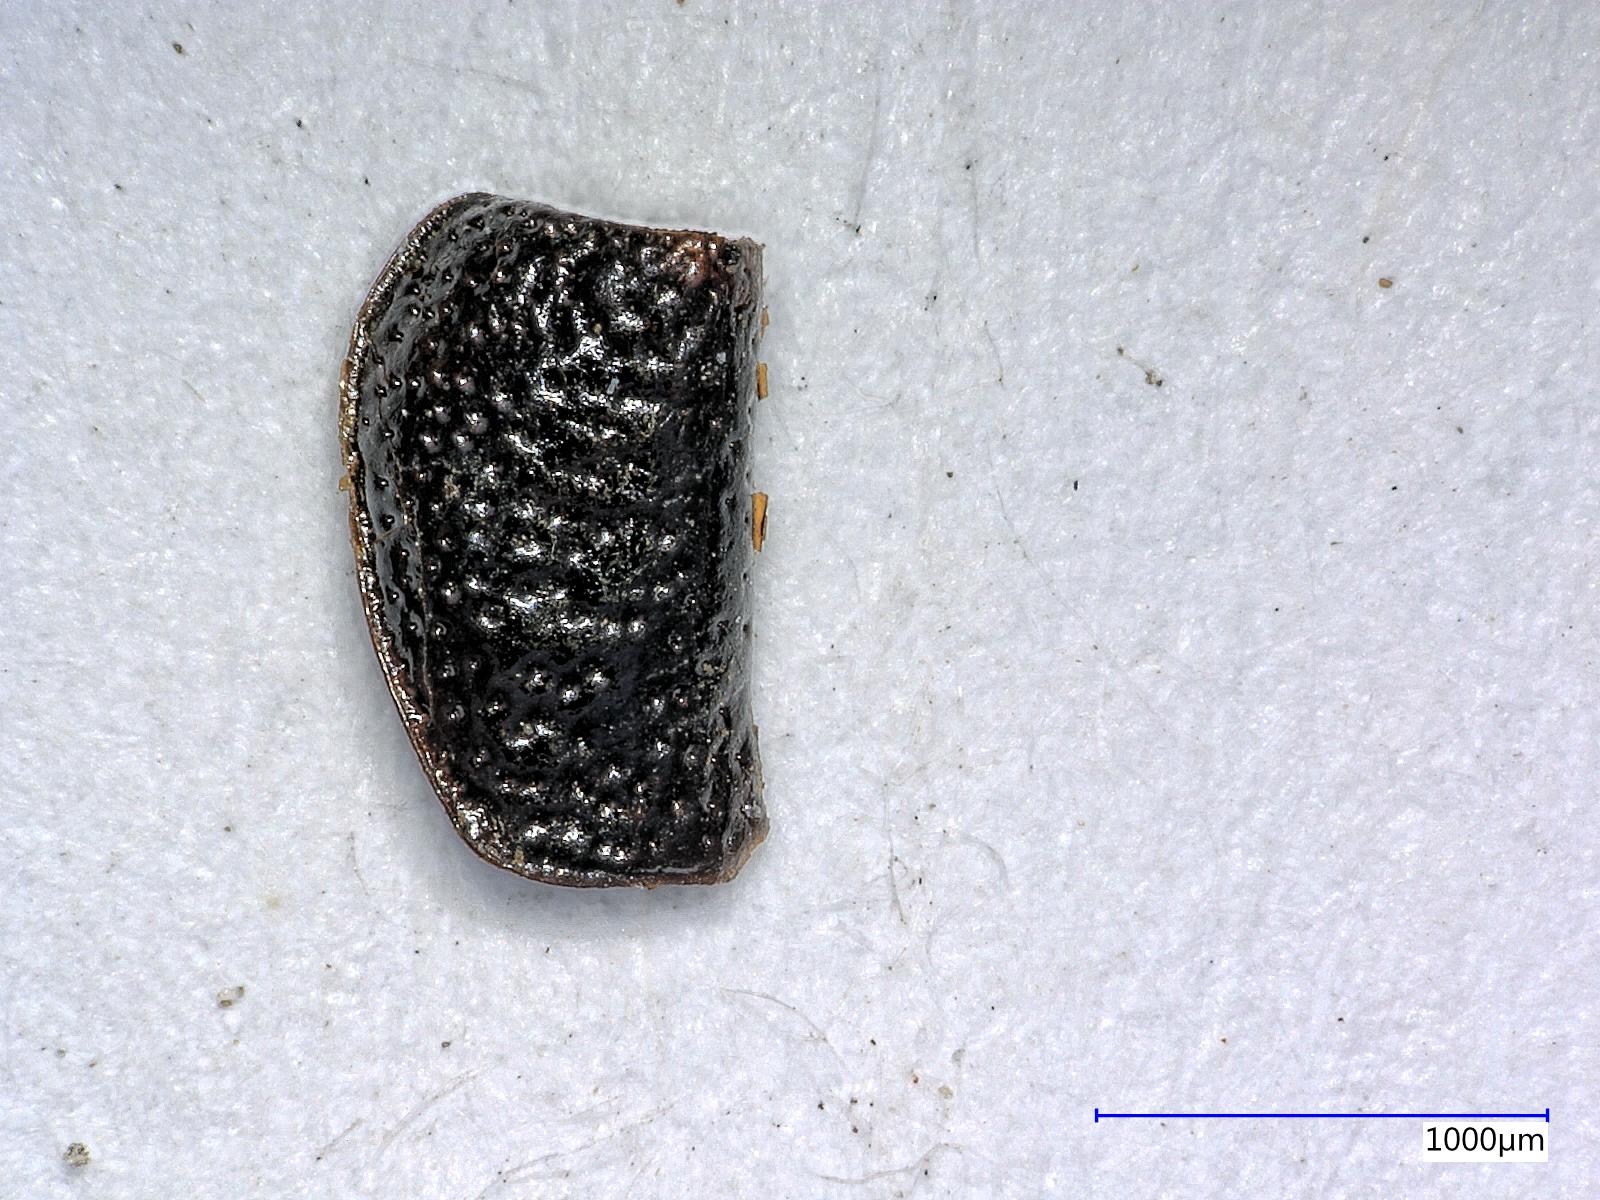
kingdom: Animalia
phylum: Arthropoda
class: Insecta
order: Coleoptera
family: Carabidae
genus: Dicheirus
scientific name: Dicheirus dilatatus
